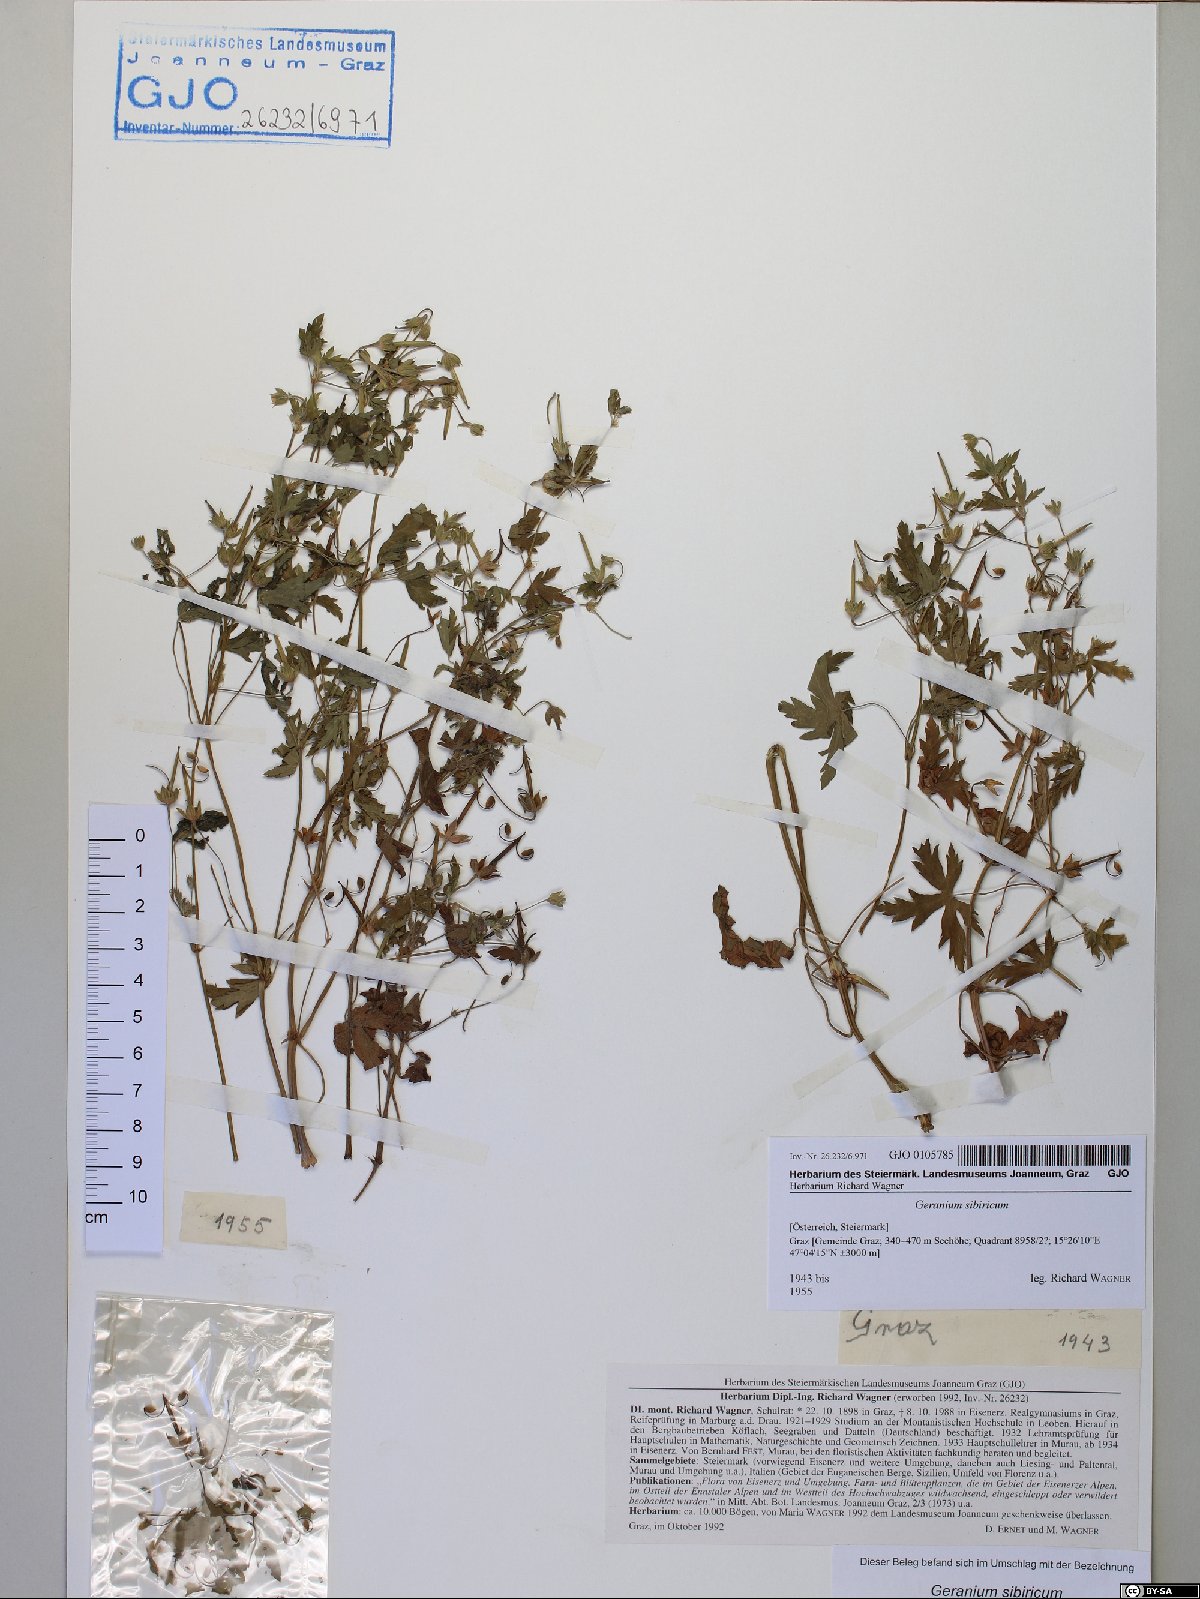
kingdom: Plantae
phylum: Tracheophyta
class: Magnoliopsida
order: Geraniales
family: Geraniaceae
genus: Geranium
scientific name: Geranium sibiricum
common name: Siberian crane's-bill
